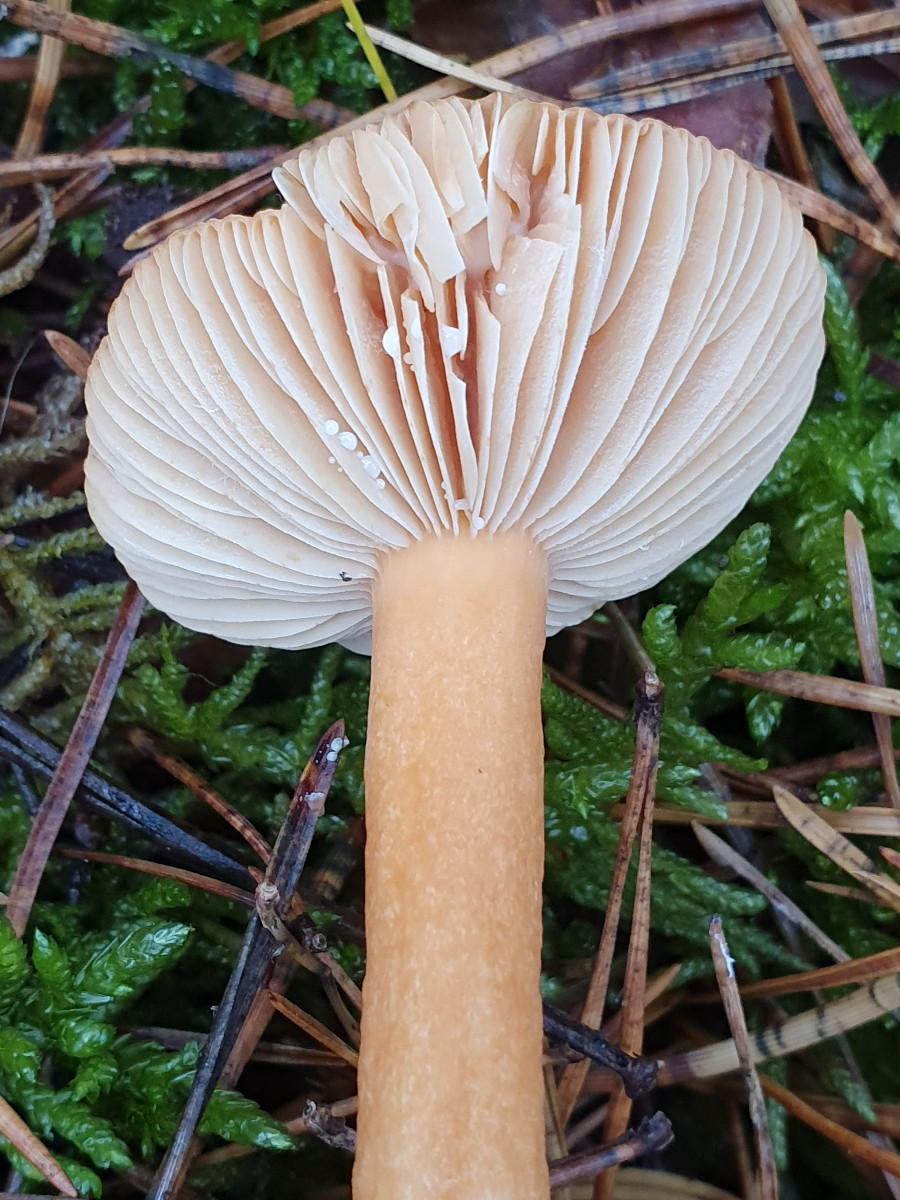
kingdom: Fungi
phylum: Basidiomycota
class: Agaricomycetes
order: Russulales
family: Russulaceae
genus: Lactarius
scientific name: Lactarius aurantiacus
